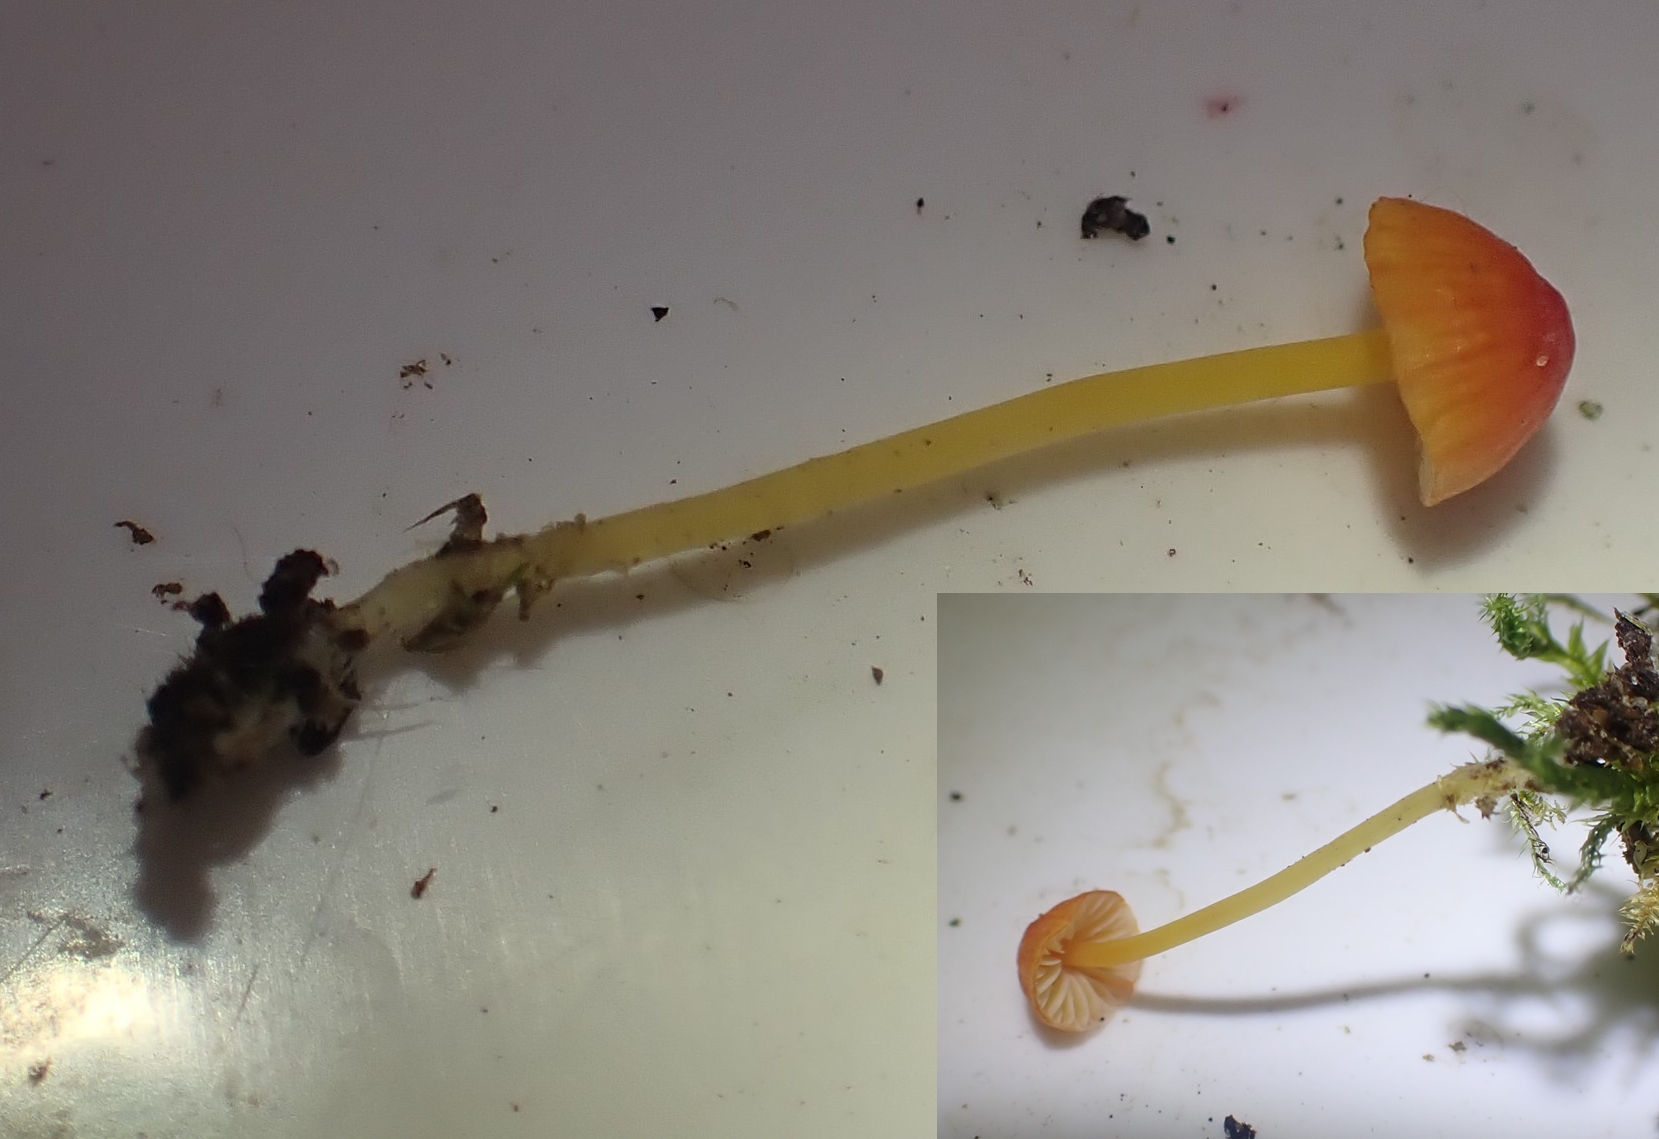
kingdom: Fungi
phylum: Basidiomycota
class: Agaricomycetes
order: Agaricales
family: Mycenaceae
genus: Mycena
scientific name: Mycena acicula
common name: orange huesvamp
